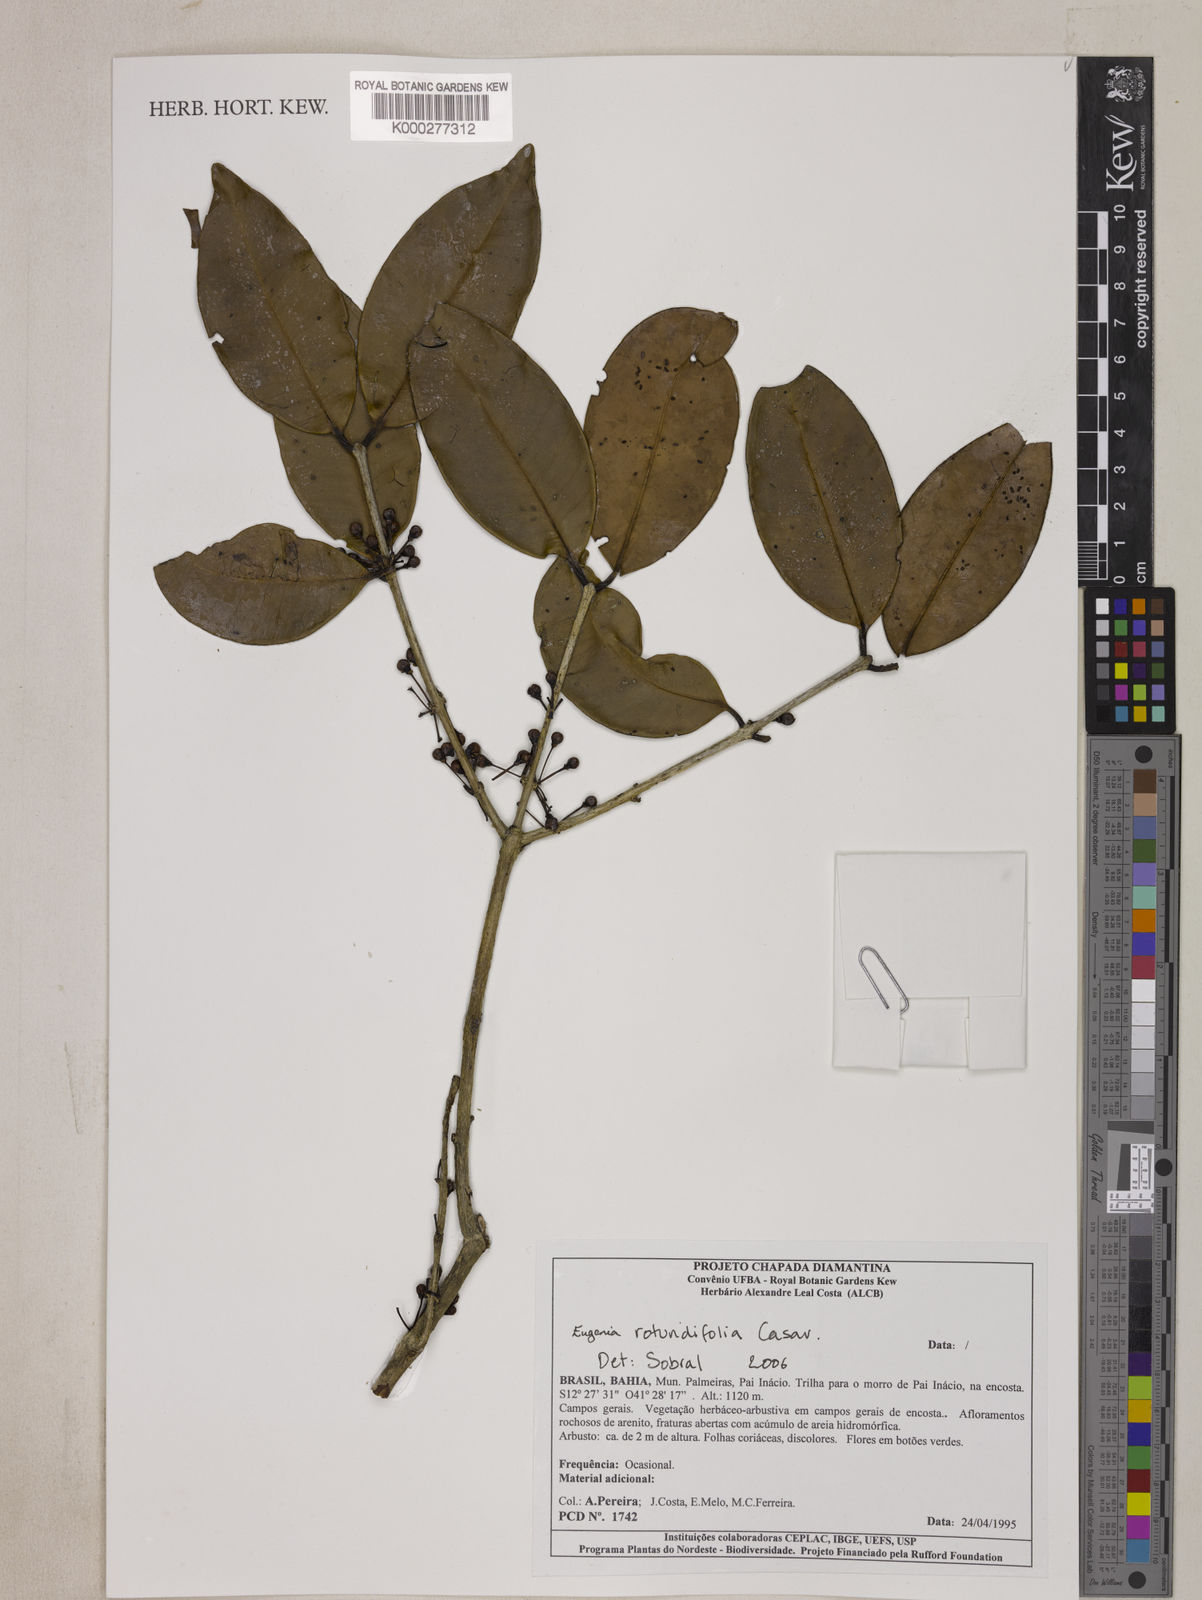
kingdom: Plantae
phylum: Tracheophyta
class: Magnoliopsida
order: Myrtales
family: Myrtaceae
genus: Eugenia
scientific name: Eugenia umbelliflora
